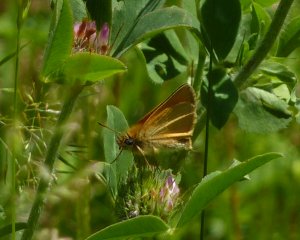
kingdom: Animalia
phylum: Arthropoda
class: Insecta
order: Lepidoptera
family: Hesperiidae
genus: Thymelicus
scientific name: Thymelicus lineola
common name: European Skipper
